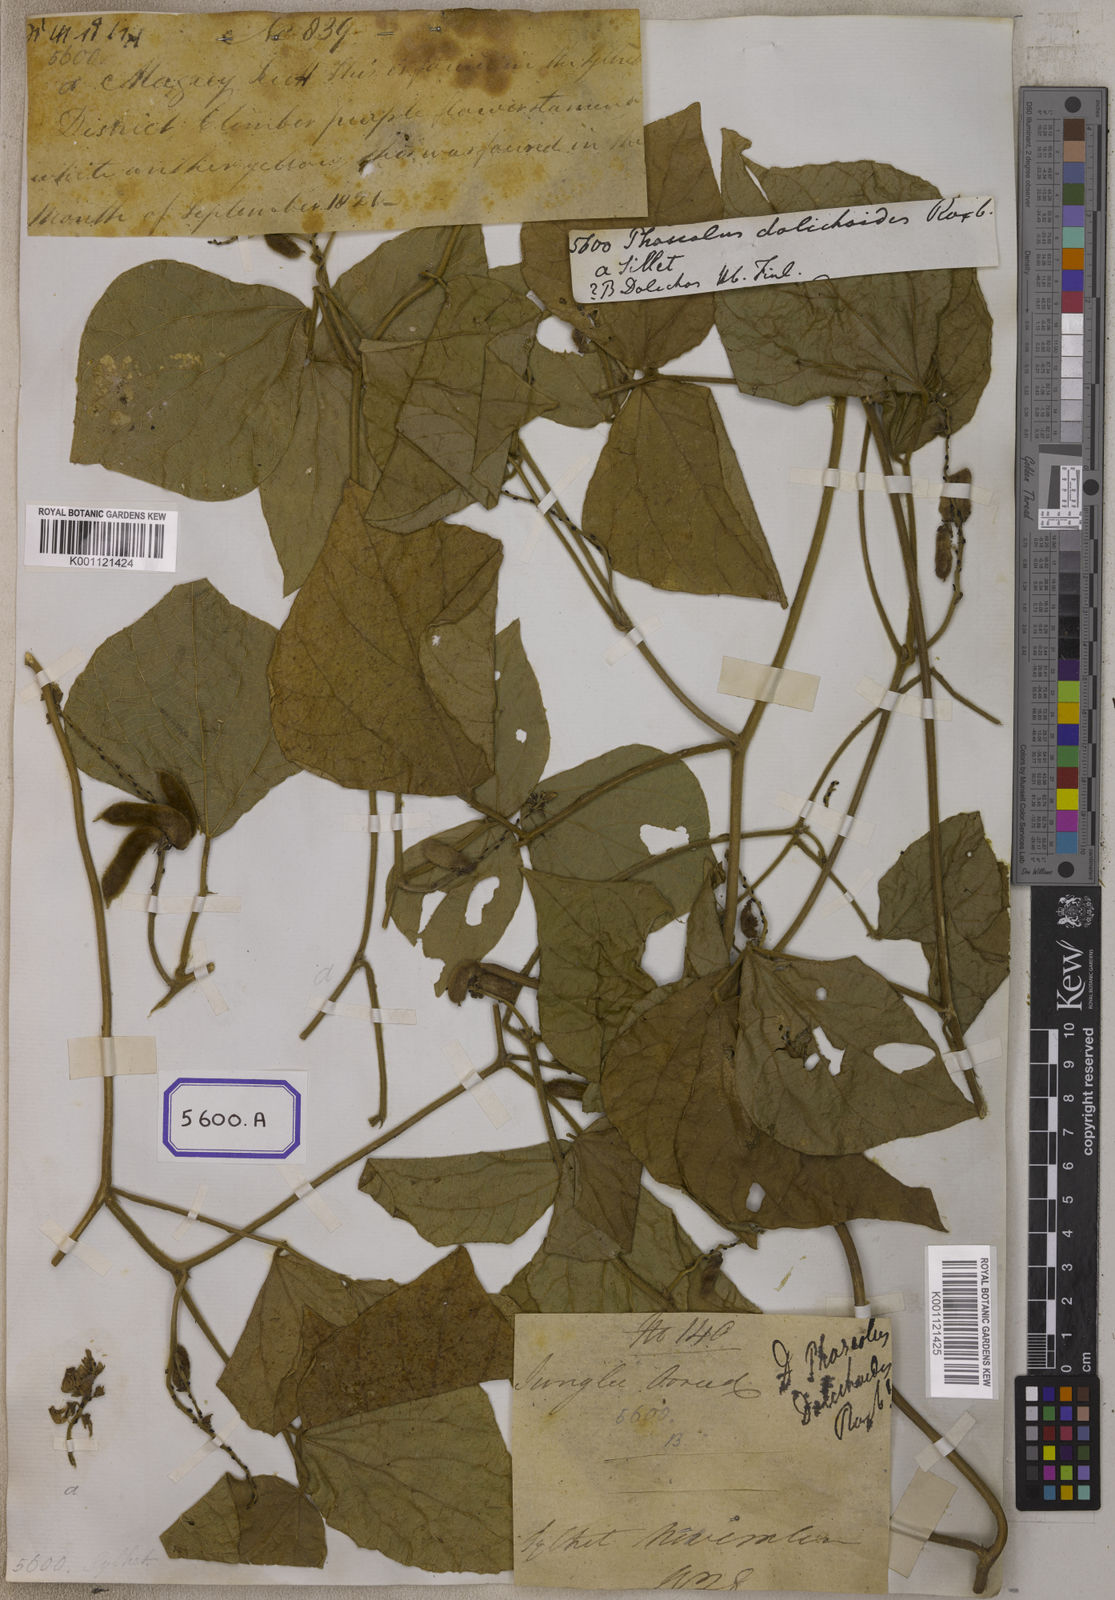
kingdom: Plantae
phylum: Tracheophyta
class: Magnoliopsida
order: Fabales
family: Fabaceae
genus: Dysolobium
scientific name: Dysolobium dolichoides
